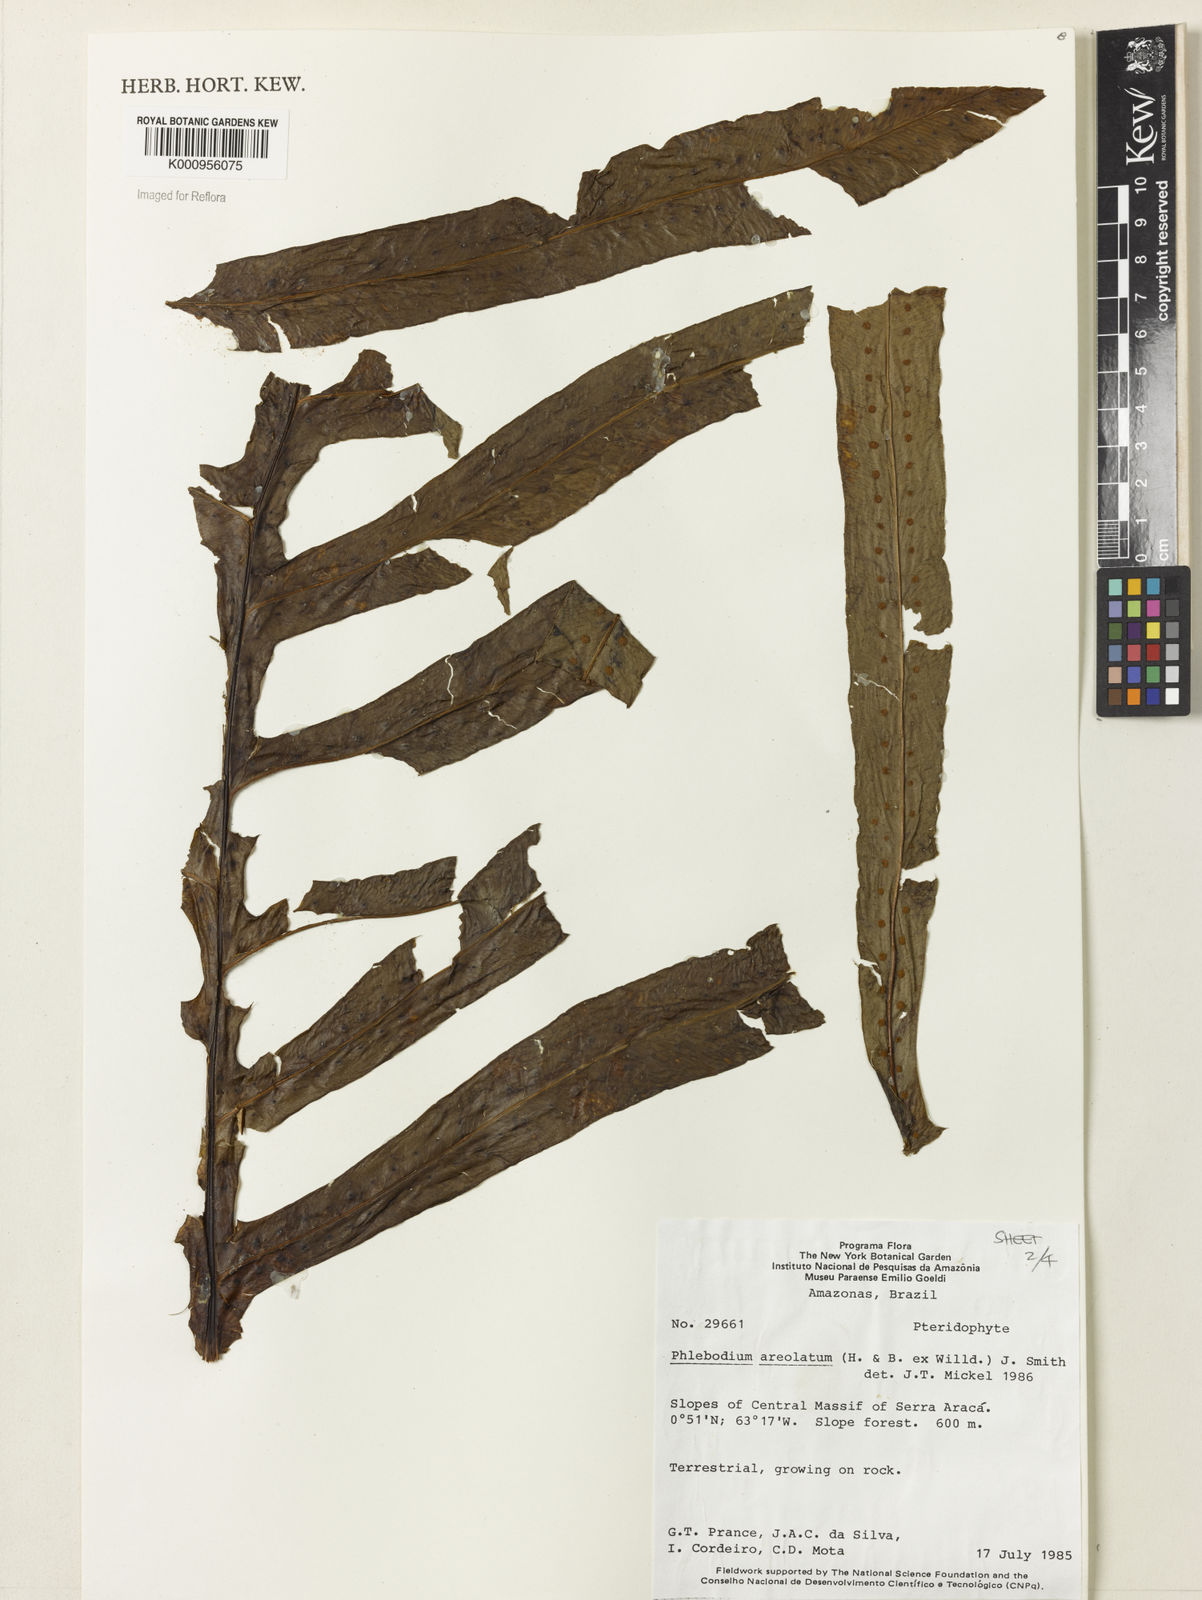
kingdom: Plantae
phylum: Tracheophyta
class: Polypodiopsida
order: Polypodiales
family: Polypodiaceae
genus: Phlebodium
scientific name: Phlebodium aureum
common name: Gold-foot fern
